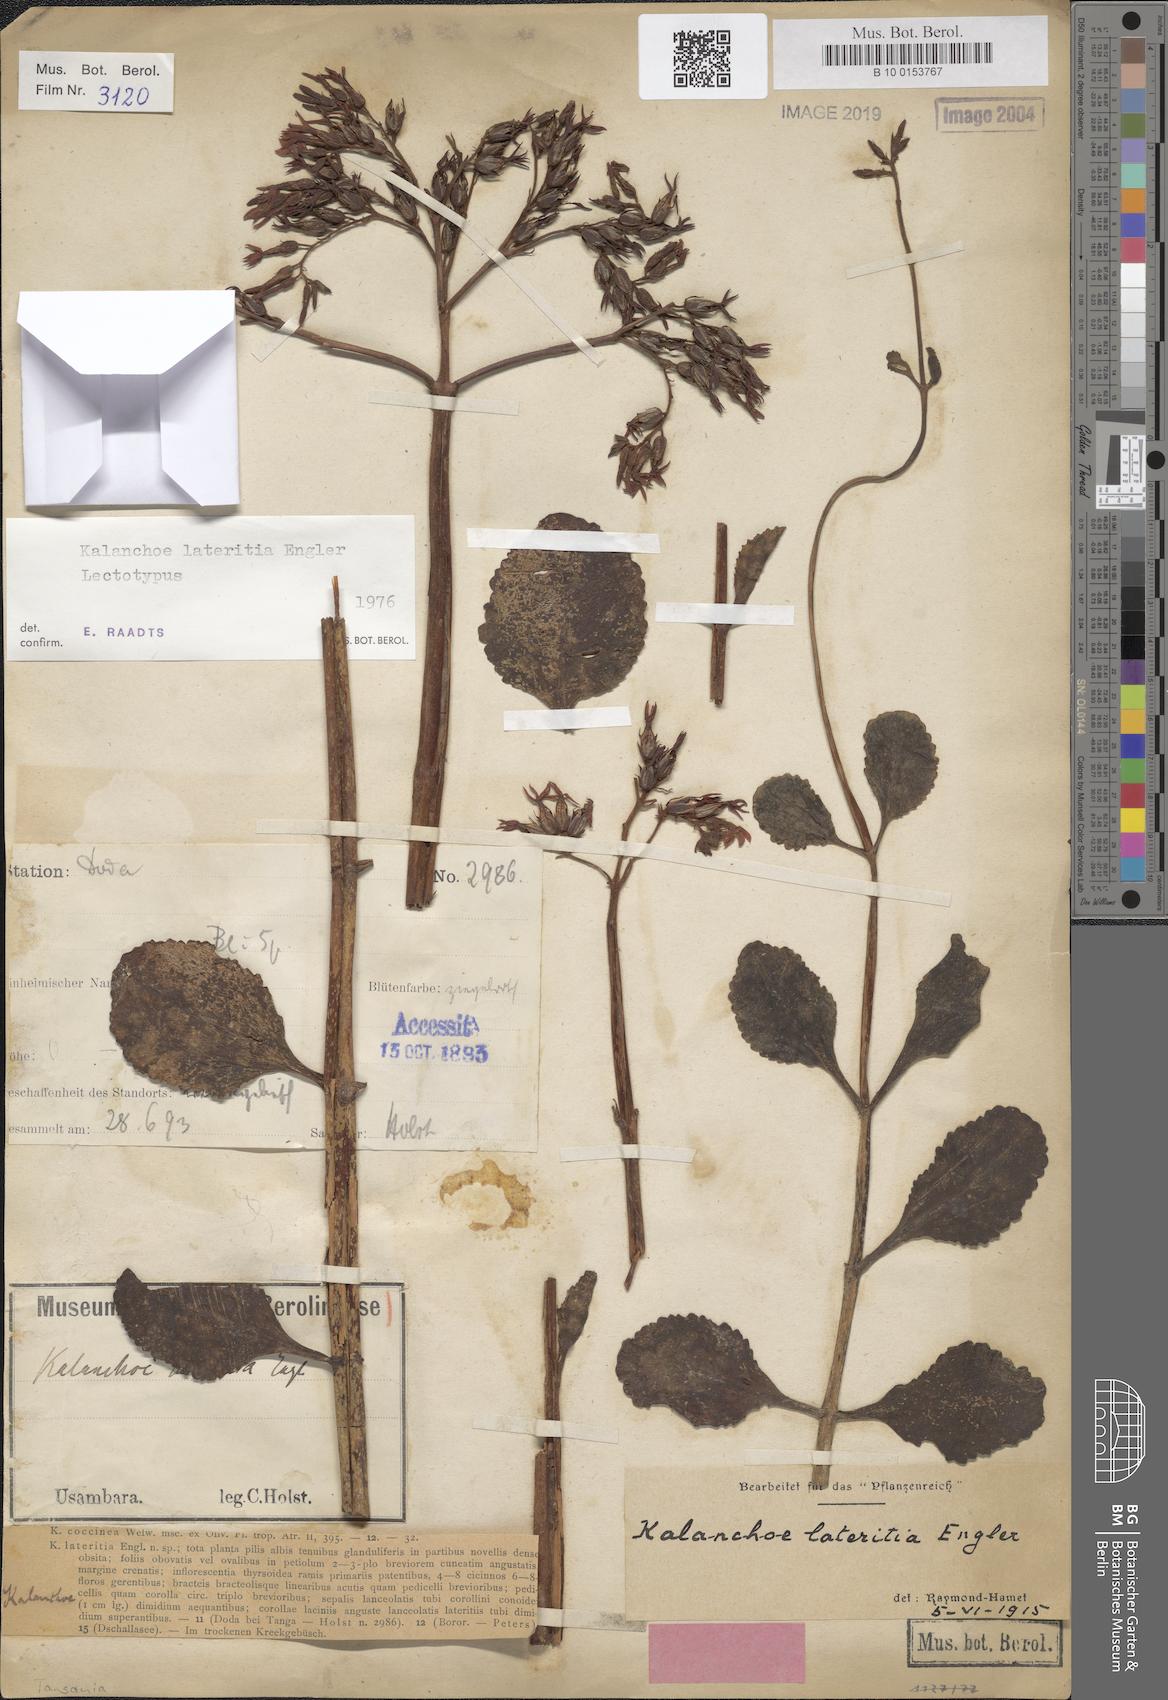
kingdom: Plantae
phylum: Tracheophyta
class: Magnoliopsida
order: Saxifragales
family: Crassulaceae
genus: Kalanchoe
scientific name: Kalanchoe lateritia
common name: Kalanchoe
